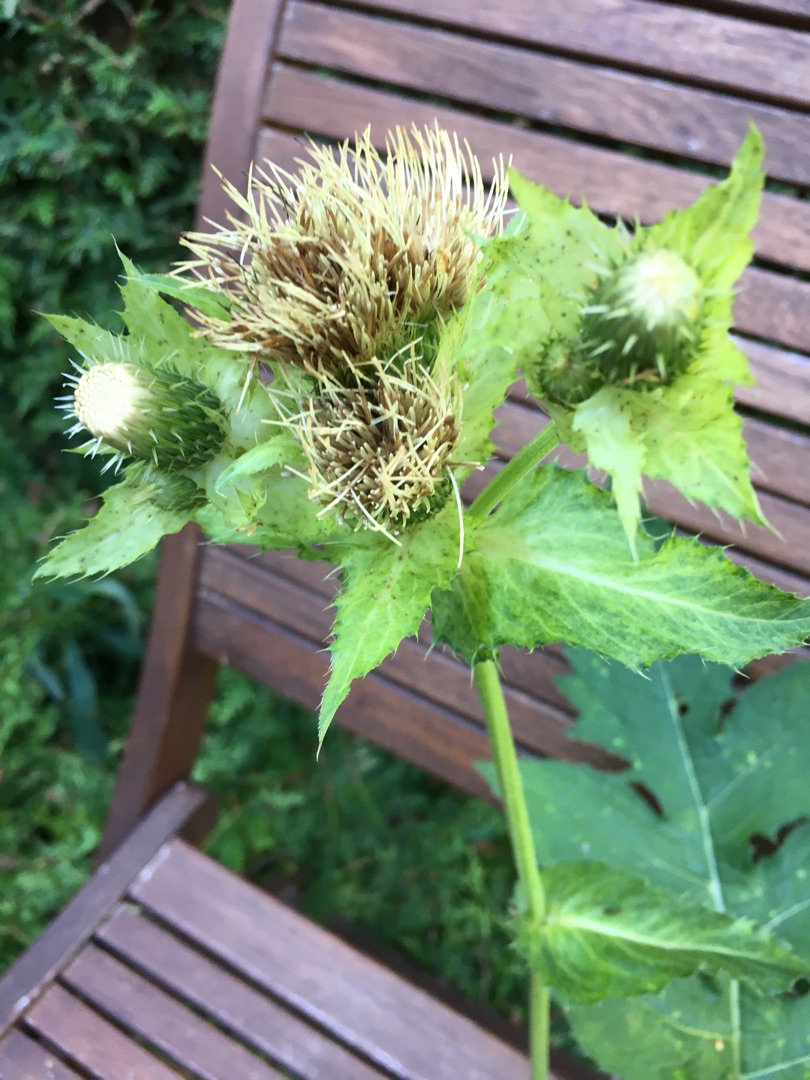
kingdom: Plantae
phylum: Tracheophyta
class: Magnoliopsida
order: Asterales
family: Asteraceae
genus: Cirsium
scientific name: Cirsium oleraceum
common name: Kål-tidsel
